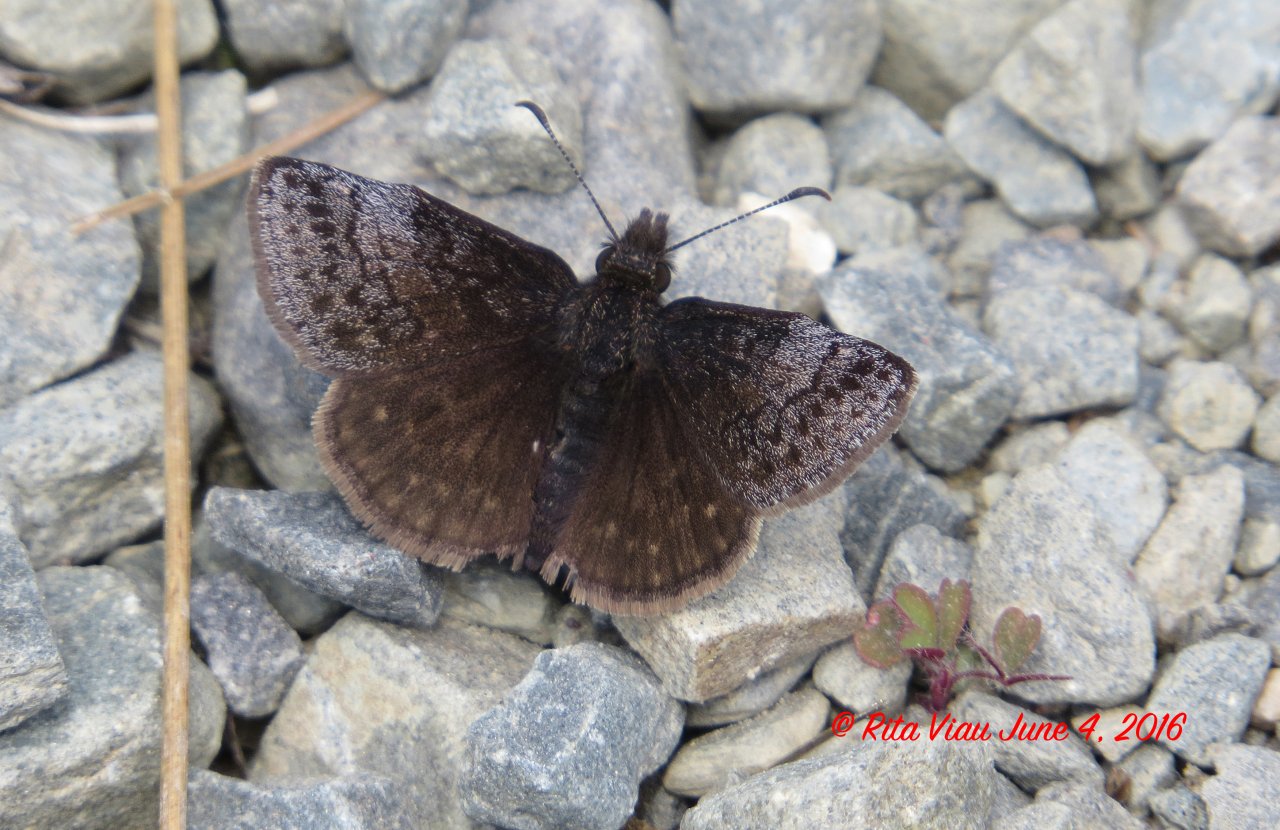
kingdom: Animalia
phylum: Arthropoda
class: Insecta
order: Lepidoptera
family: Hesperiidae
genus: Erynnis
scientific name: Erynnis icelus
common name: Dreamy Duskywing
